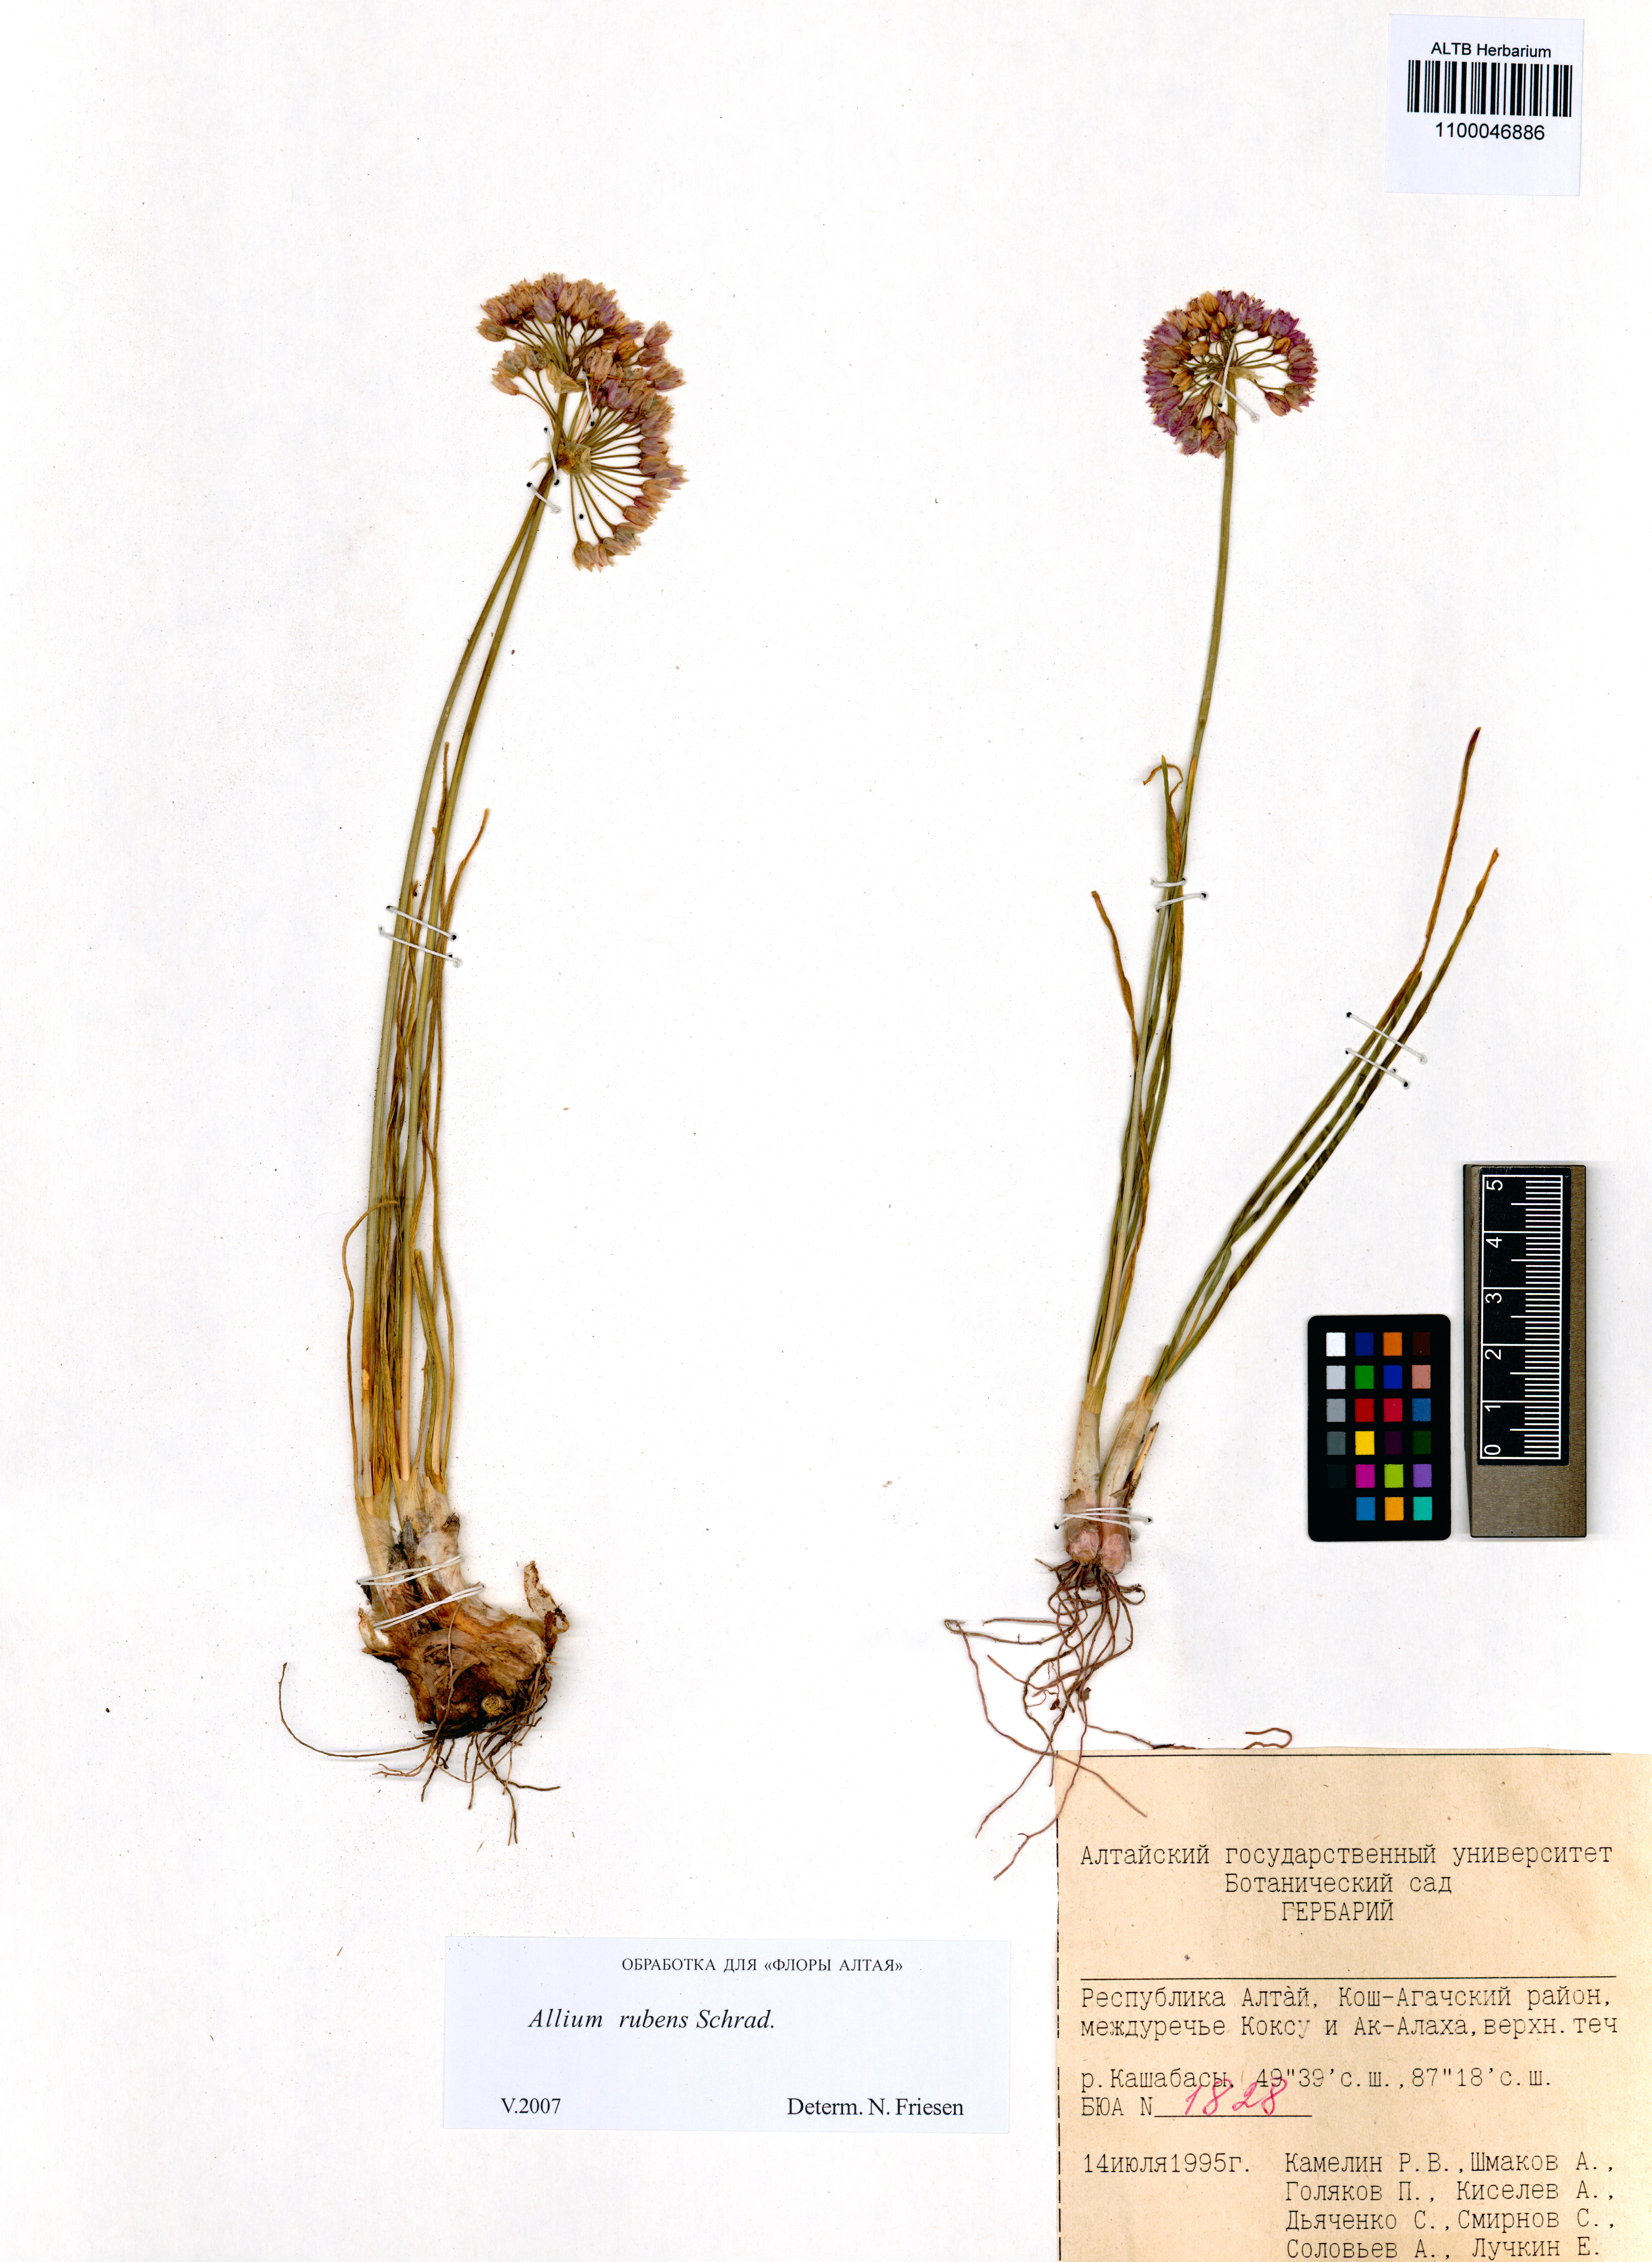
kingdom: Plantae
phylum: Tracheophyta
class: Liliopsida
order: Asparagales
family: Amaryllidaceae
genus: Allium
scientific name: Allium rubens
